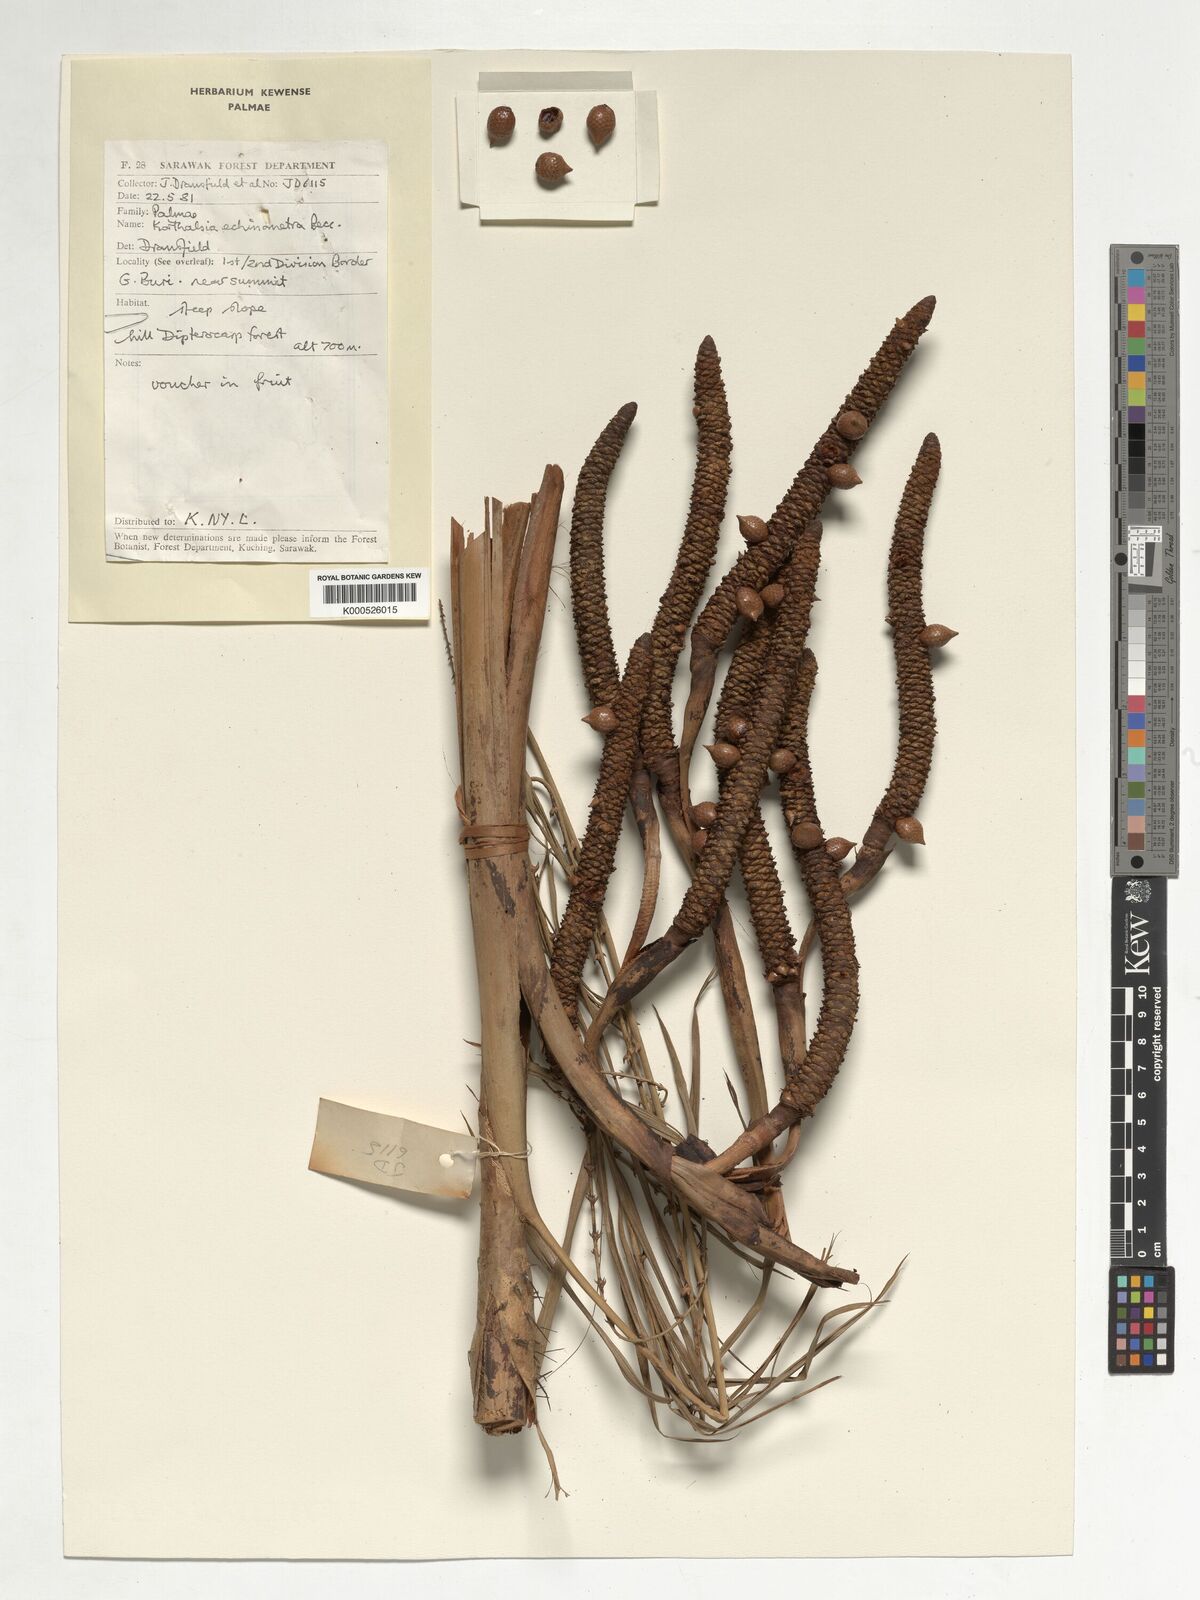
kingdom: Plantae
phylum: Tracheophyta
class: Liliopsida
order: Arecales
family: Arecaceae
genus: Korthalsia
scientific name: Korthalsia echinometra
